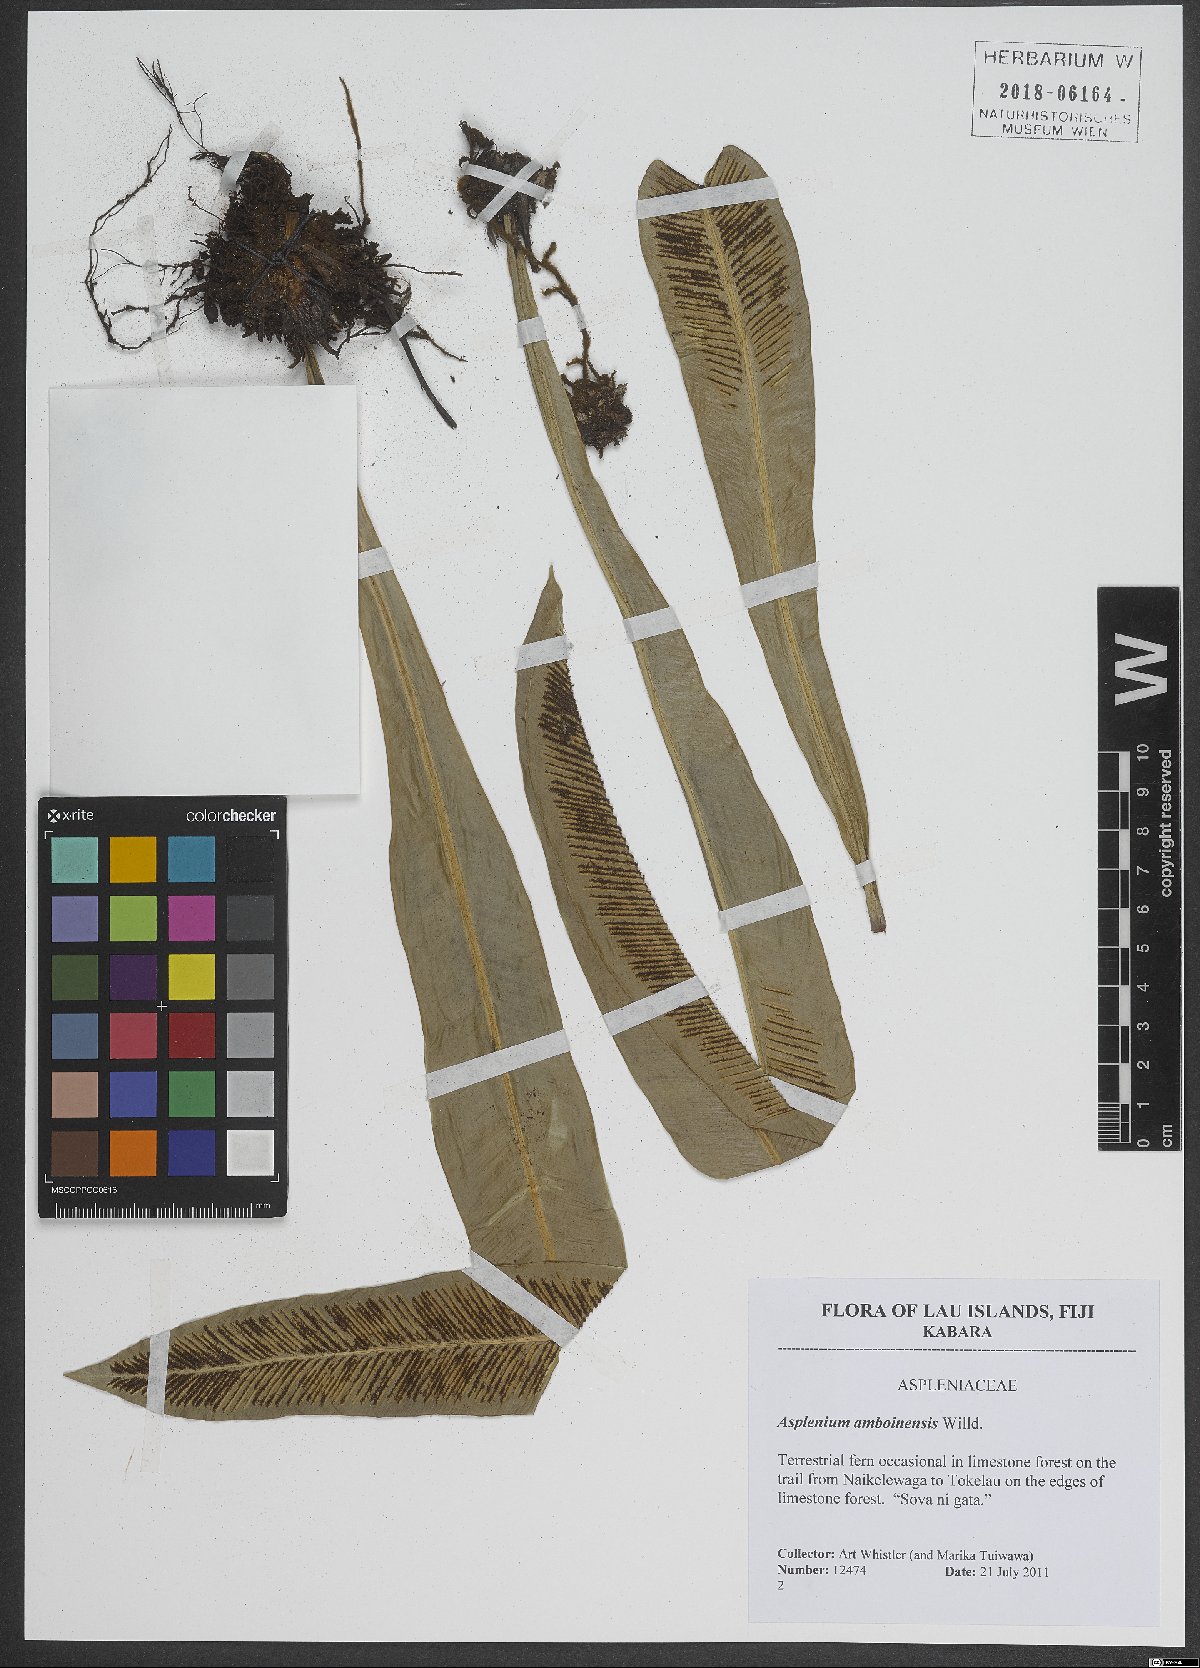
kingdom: Plantae
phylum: Tracheophyta
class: Polypodiopsida
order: Polypodiales
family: Aspleniaceae
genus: Asplenium
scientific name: Asplenium amboinense
